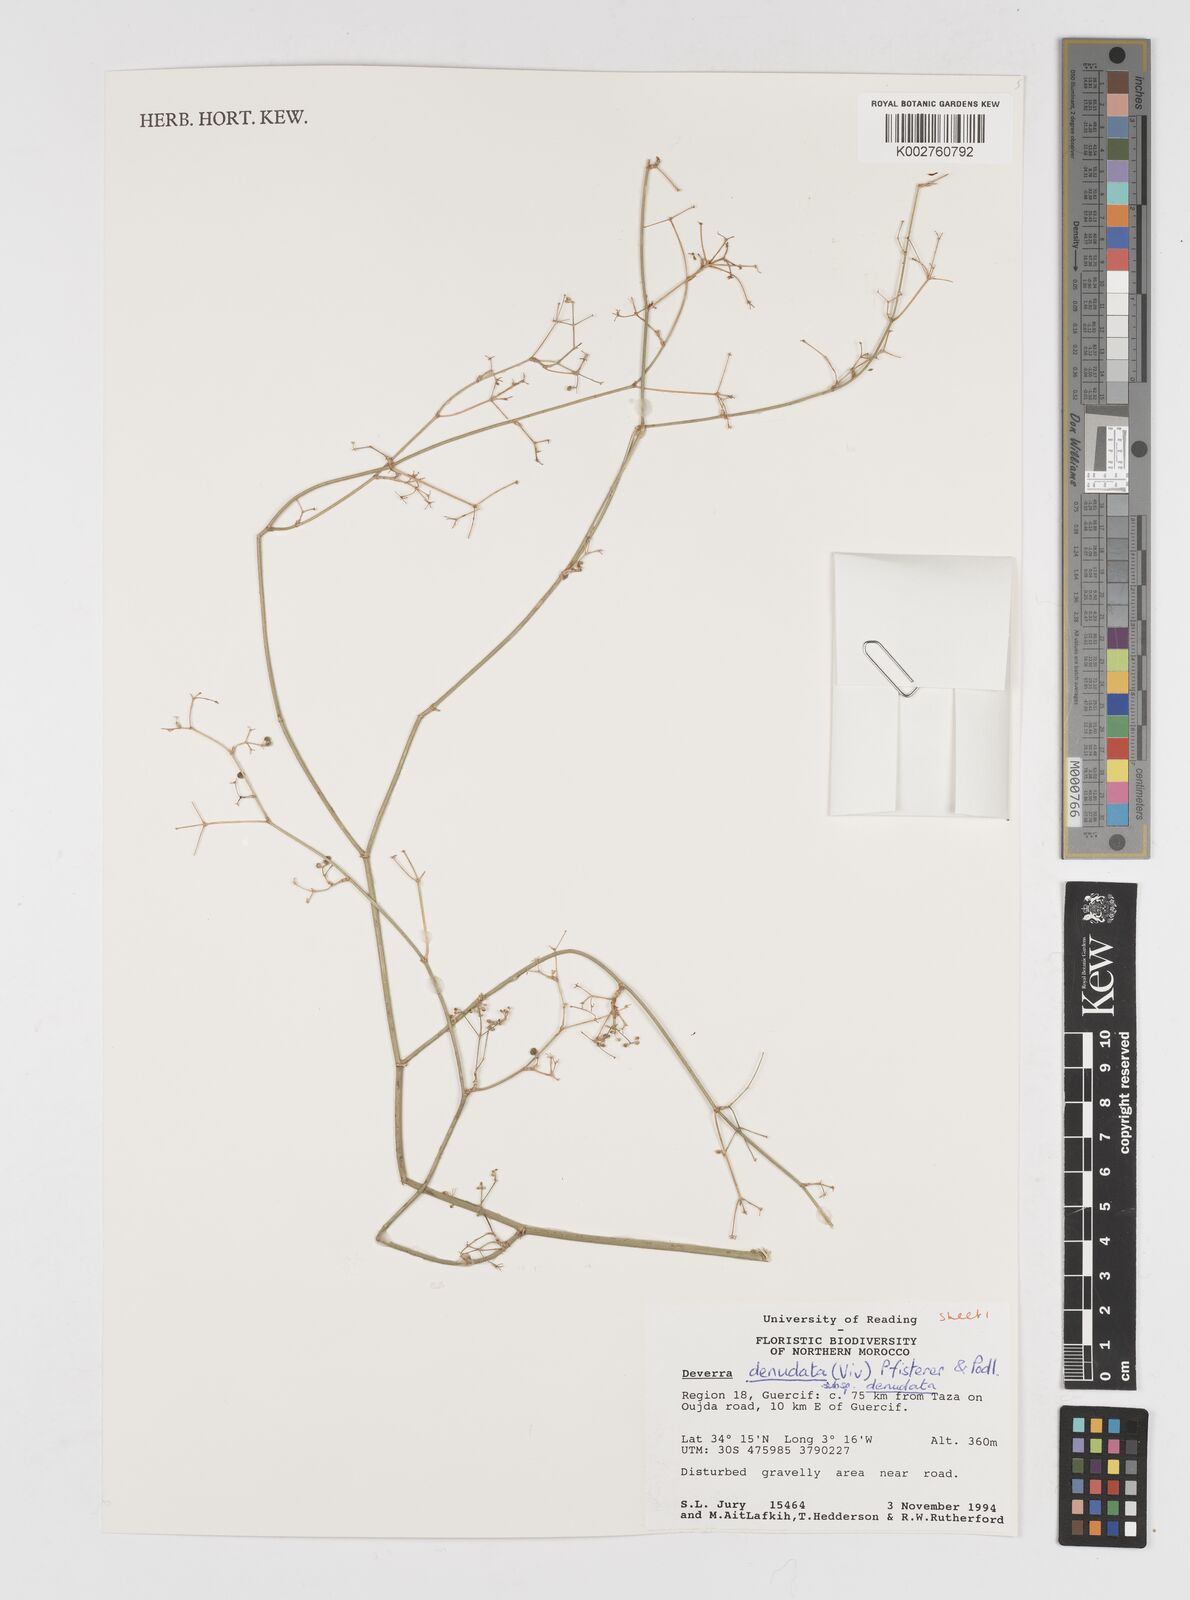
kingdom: Plantae
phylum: Tracheophyta
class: Magnoliopsida
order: Apiales
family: Apiaceae
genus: Deverra
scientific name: Deverra denudata
